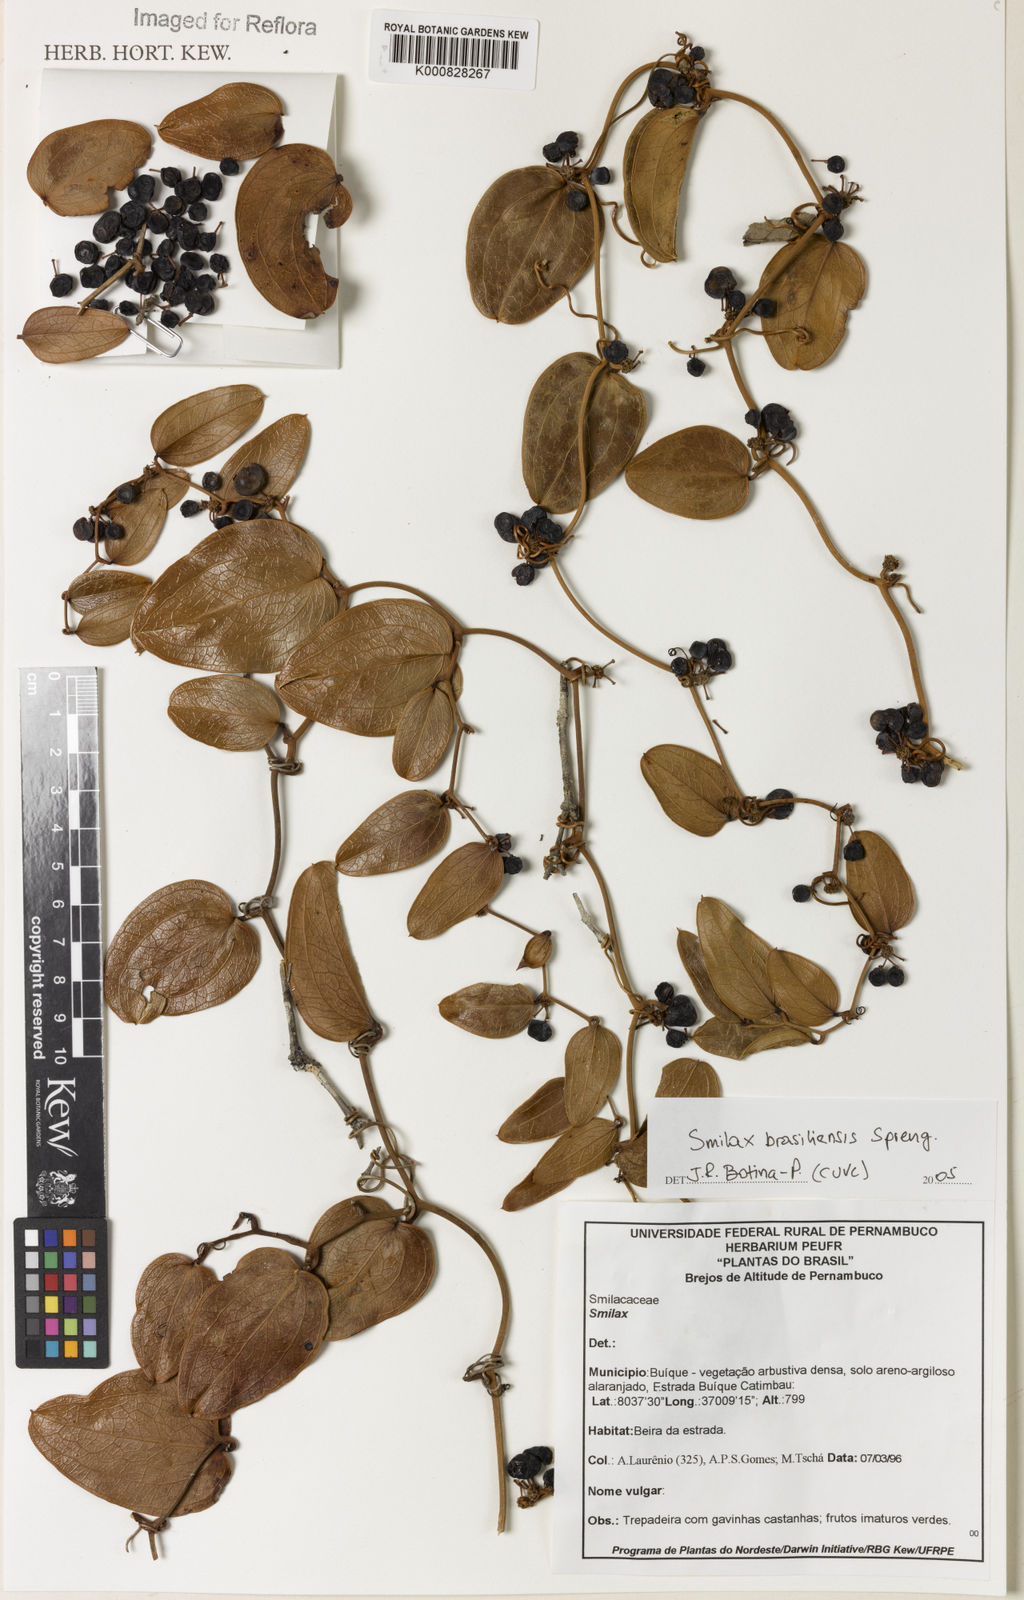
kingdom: Plantae
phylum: Tracheophyta
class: Liliopsida
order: Liliales
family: Smilacaceae
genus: Smilax
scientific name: Smilax brasiliensis
